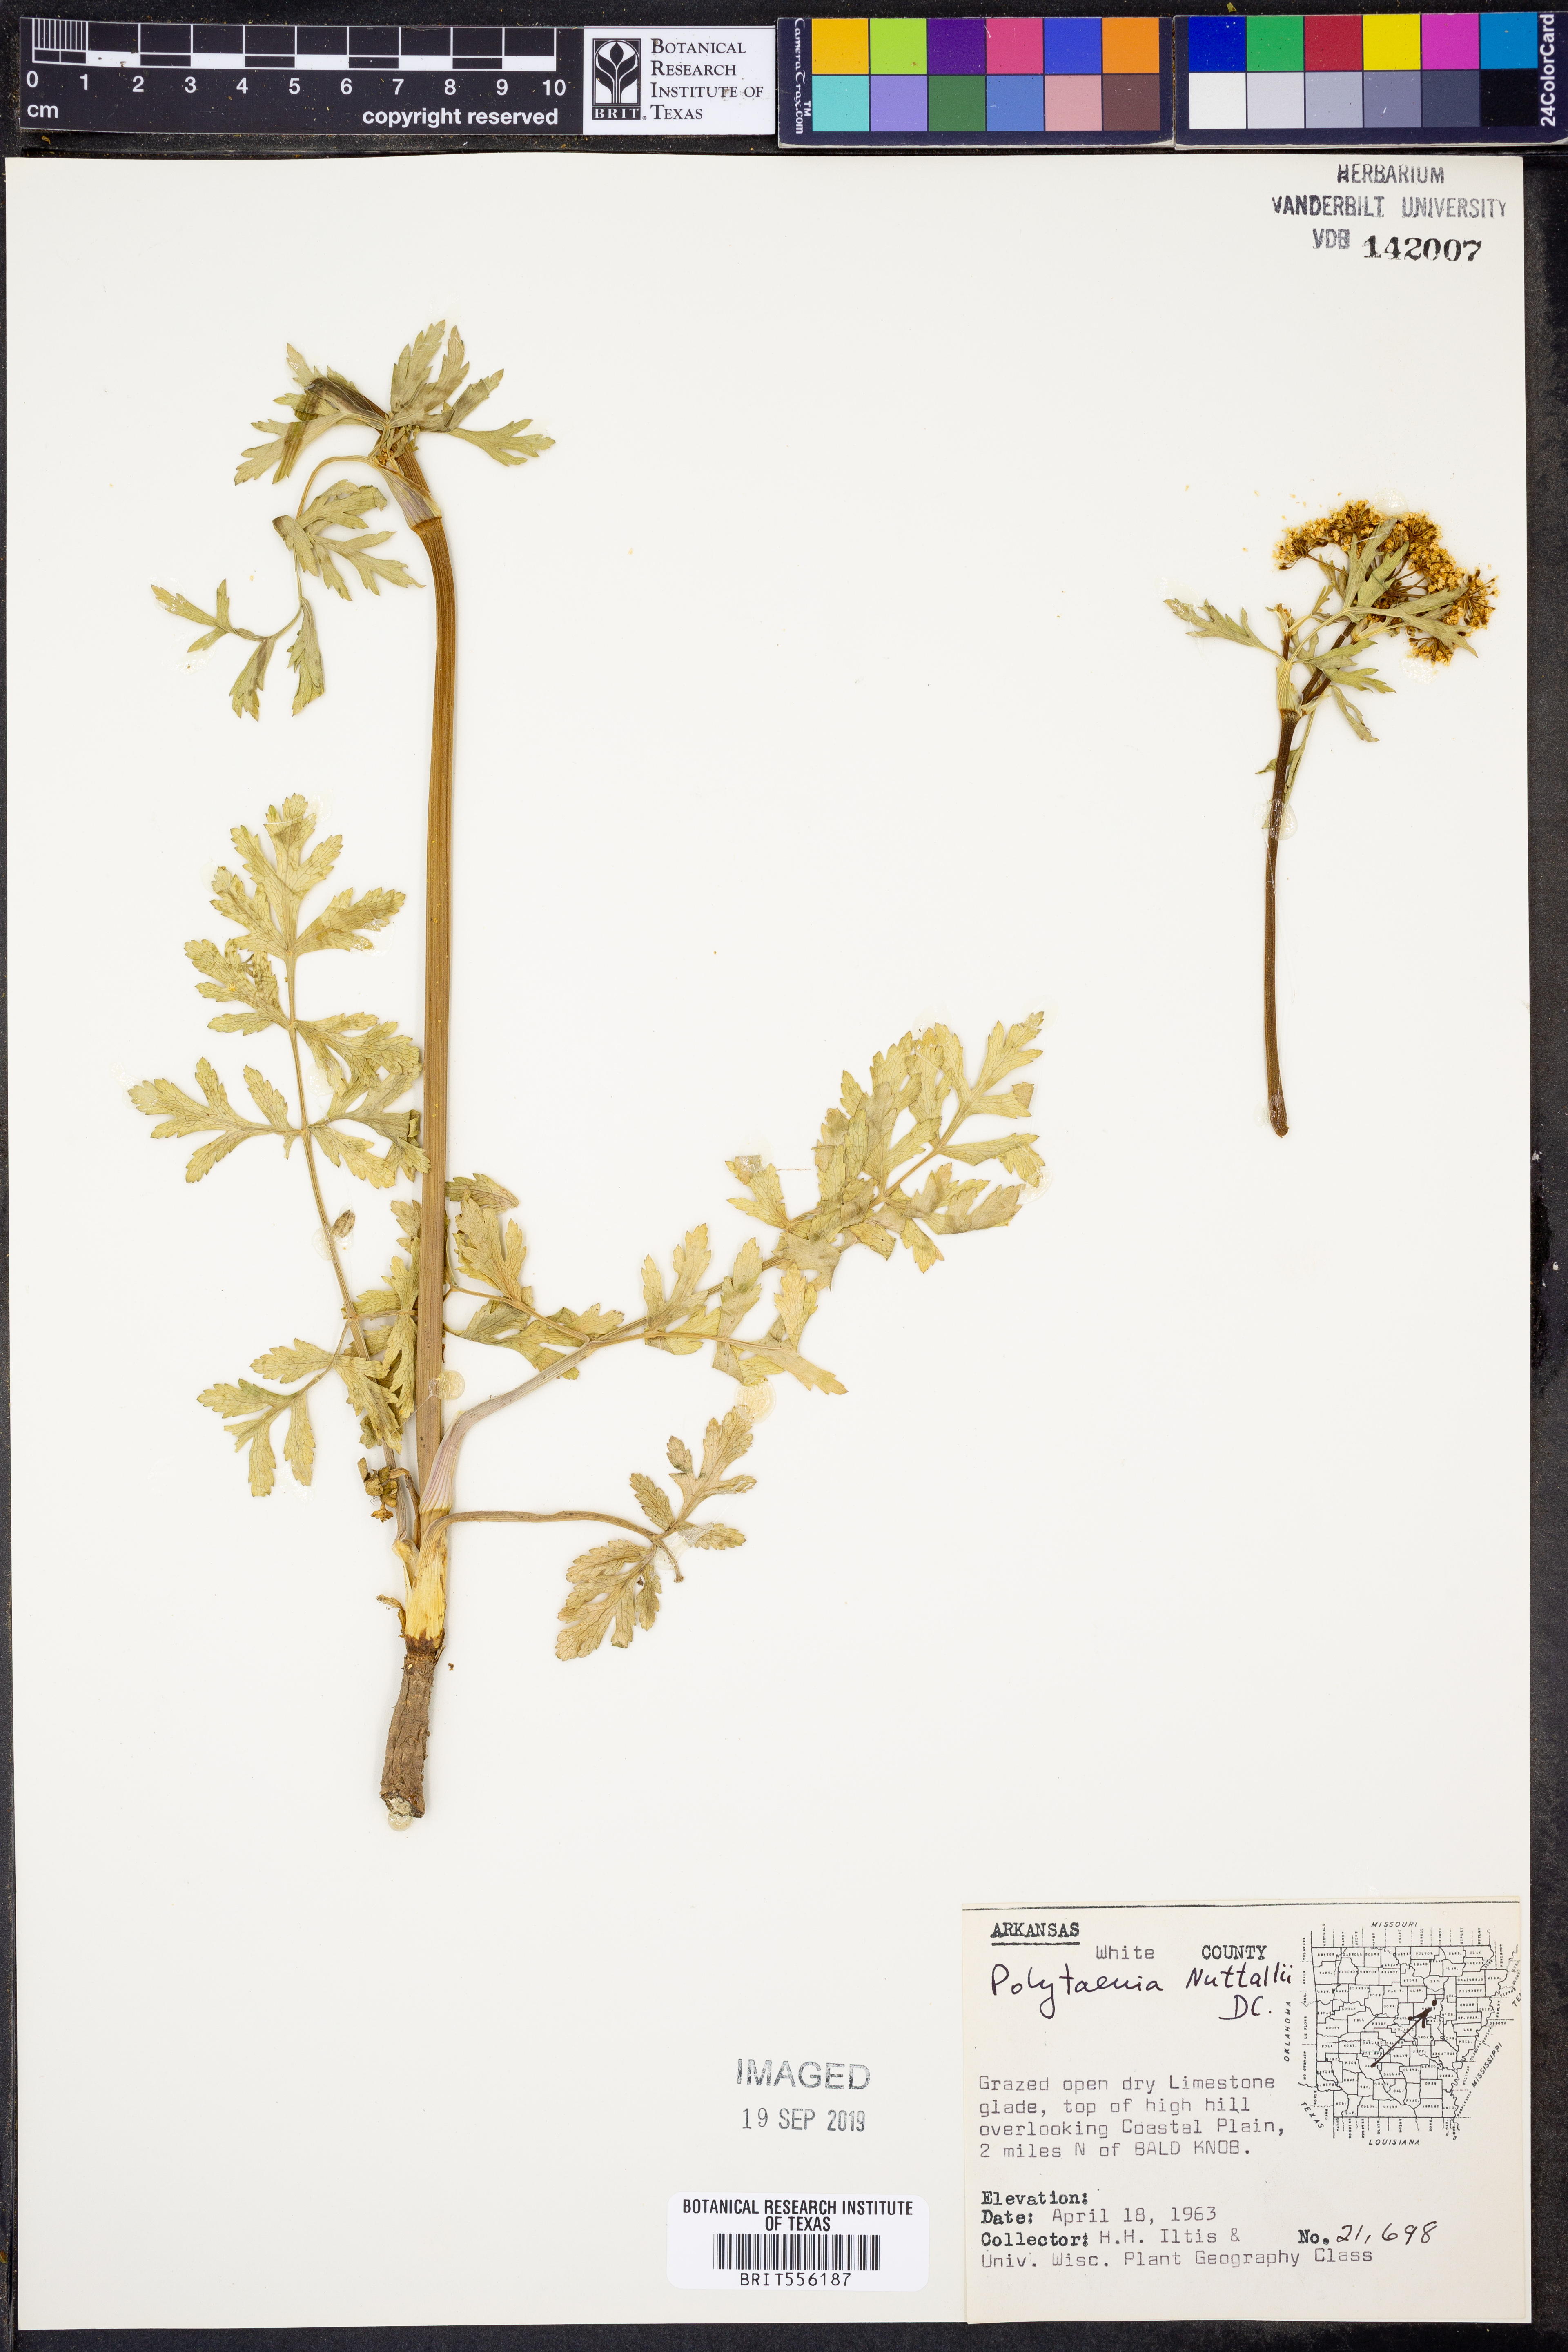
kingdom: Plantae
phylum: Tracheophyta
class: Magnoliopsida
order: Apiales
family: Apiaceae
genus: Polytaenia
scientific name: Polytaenia nuttallii
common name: Prairie-parsley
